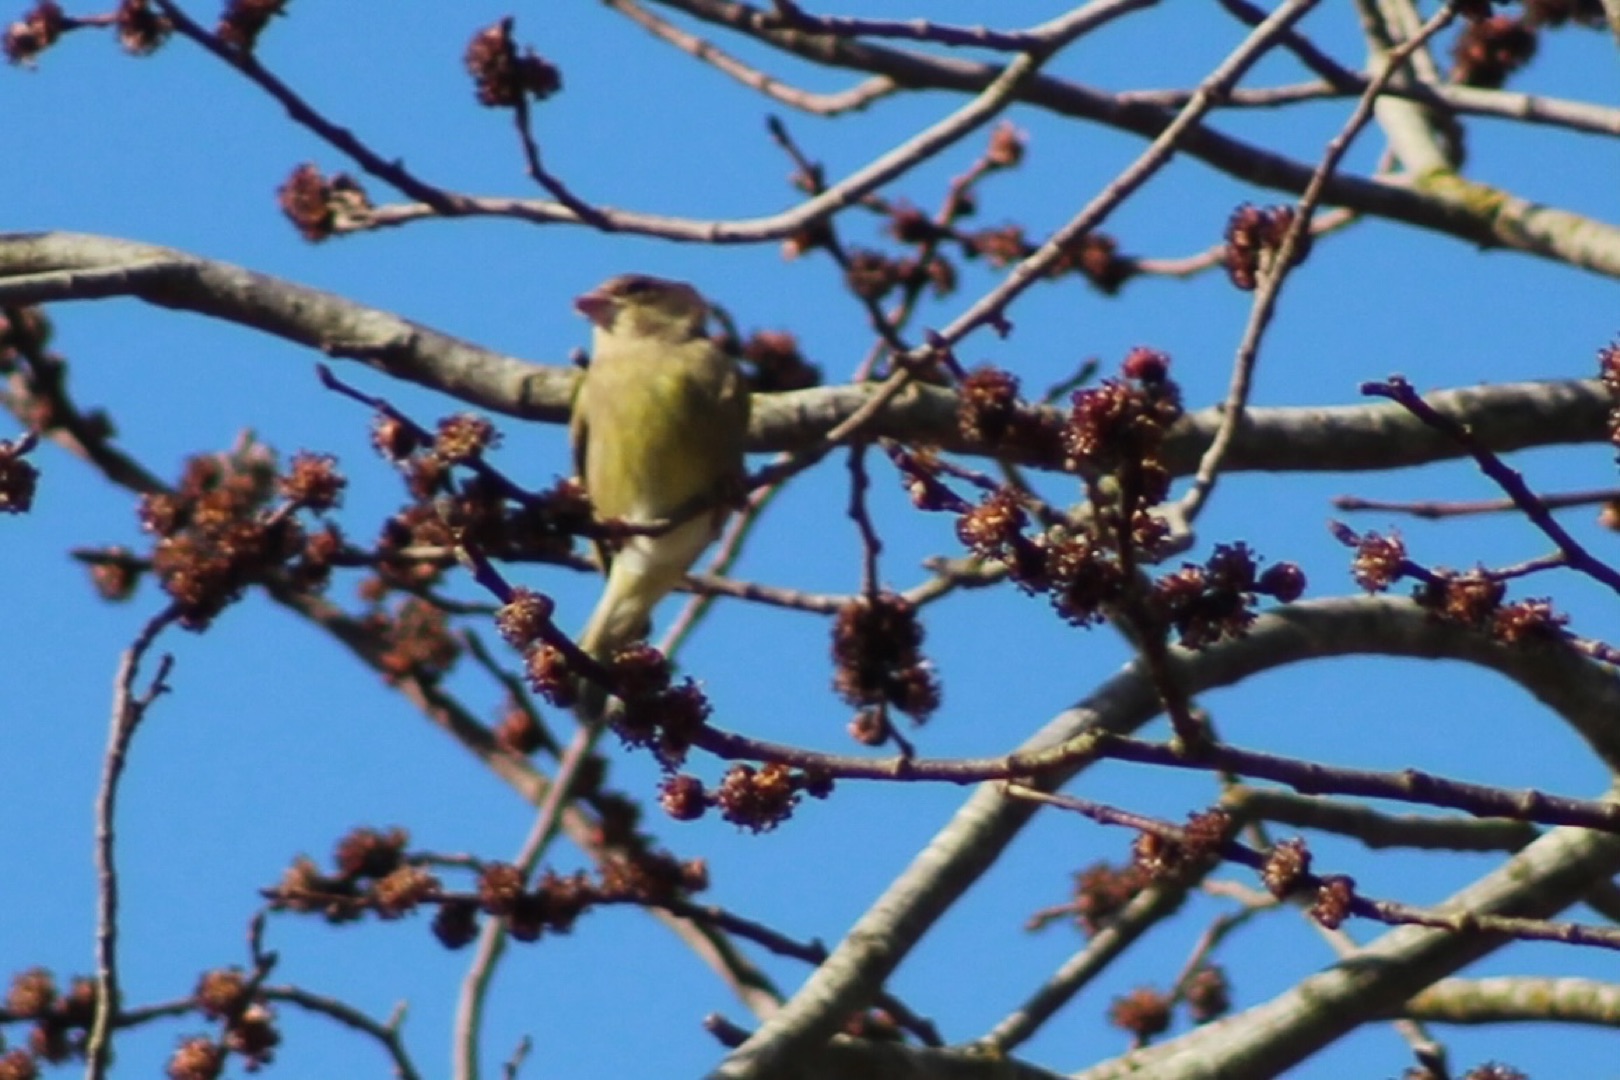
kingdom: Plantae
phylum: Tracheophyta
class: Liliopsida
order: Poales
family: Poaceae
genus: Chloris
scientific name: Chloris chloris
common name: Grønirisk
